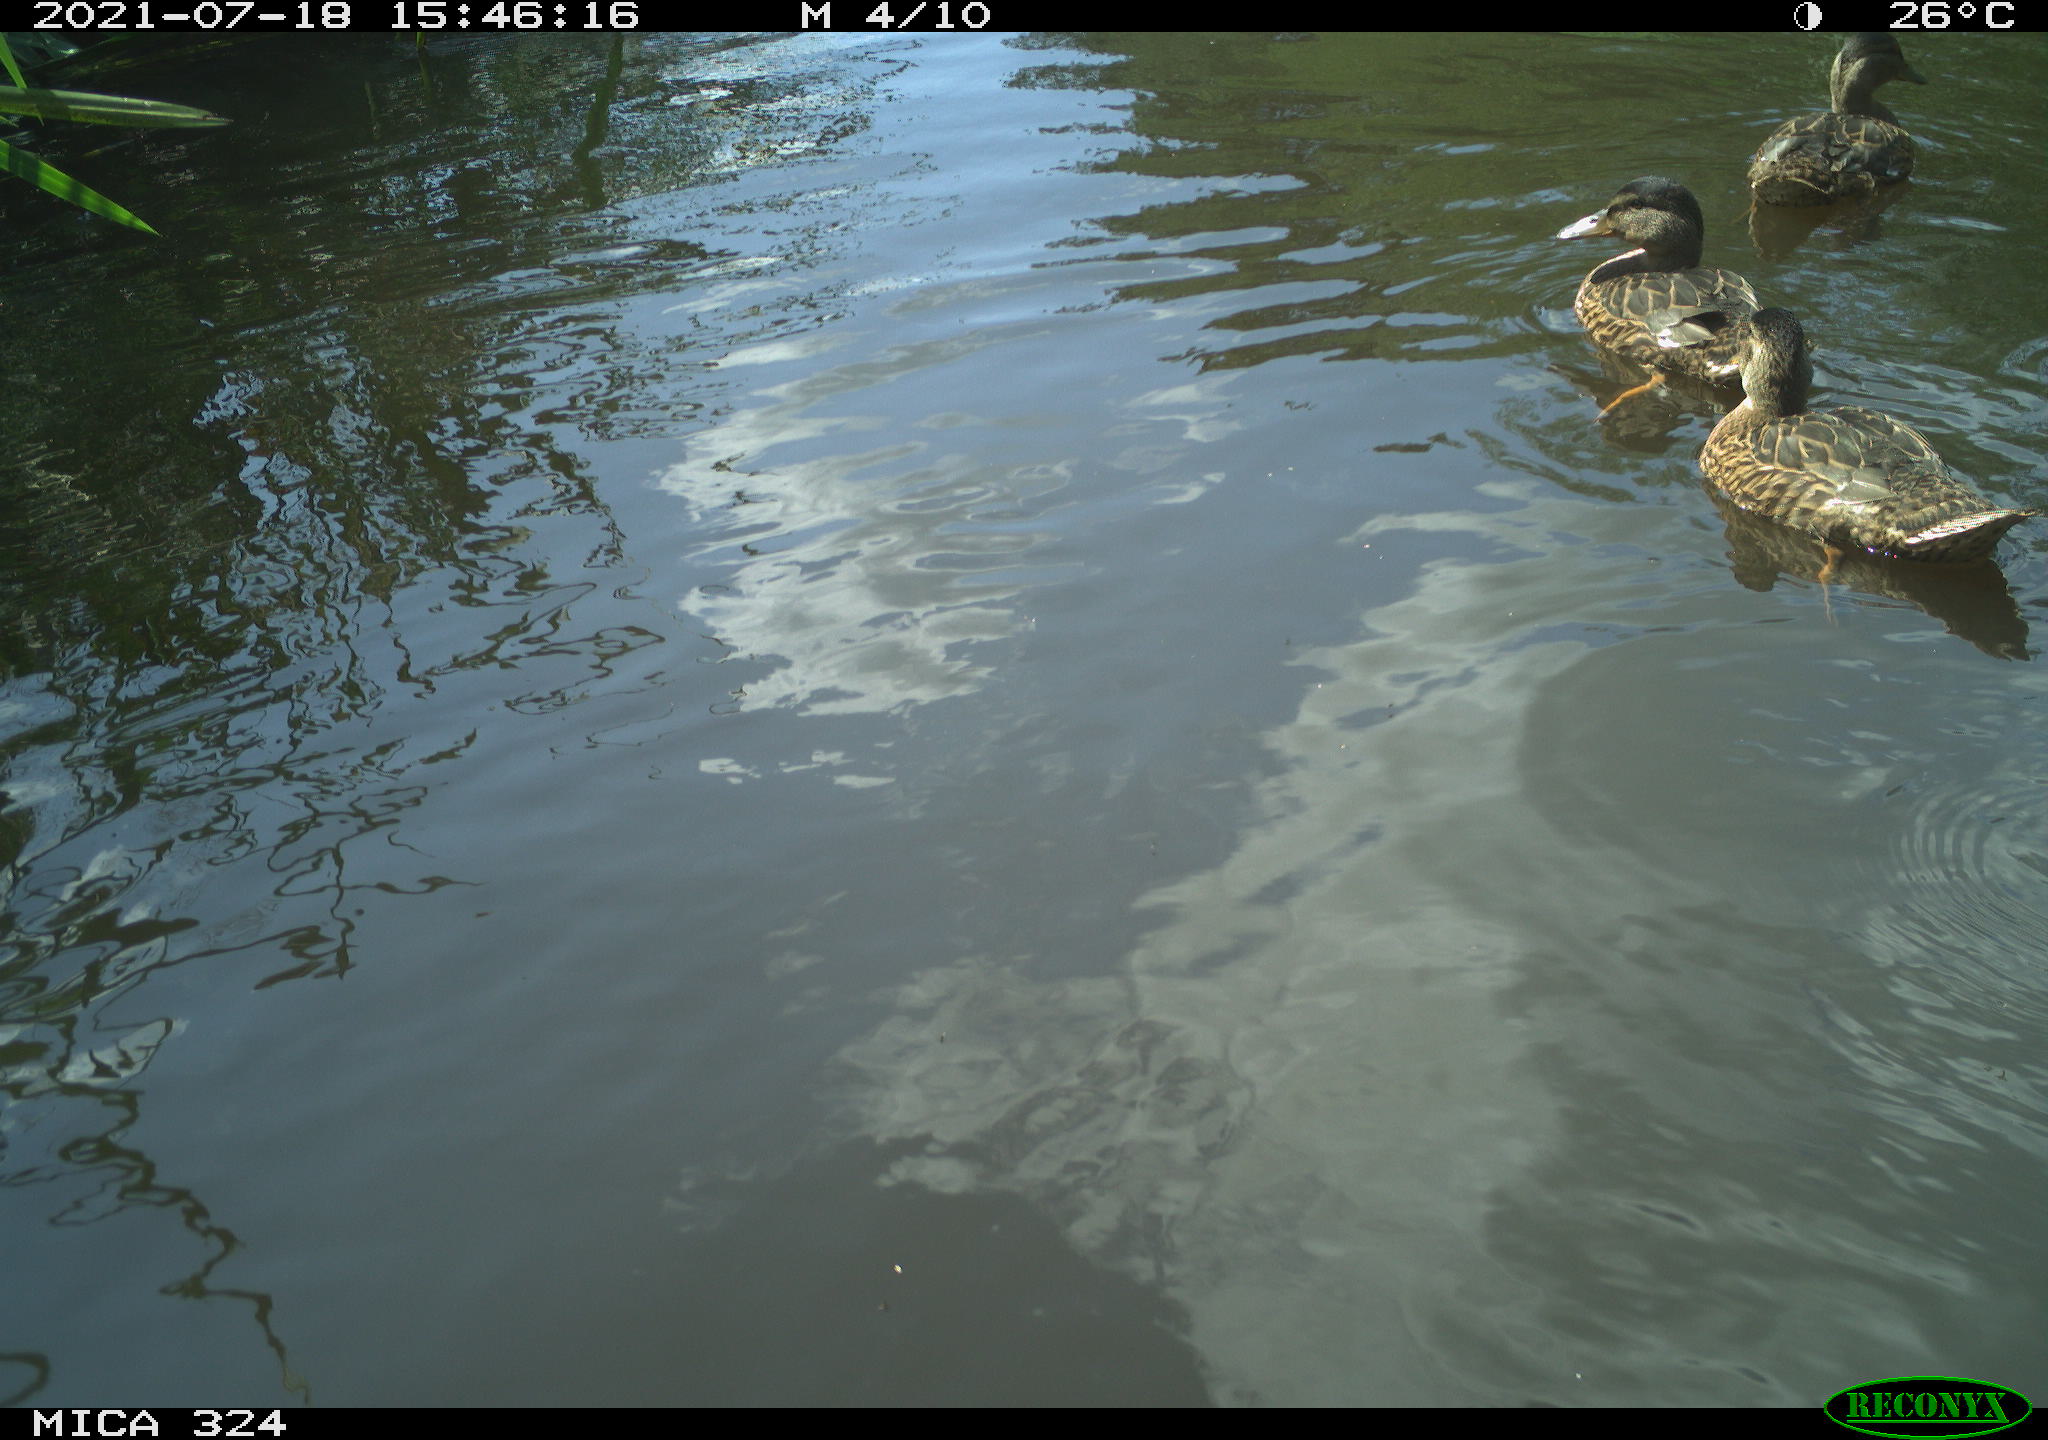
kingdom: Animalia
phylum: Chordata
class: Aves
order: Anseriformes
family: Anatidae
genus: Anas
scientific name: Anas platyrhynchos
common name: Mallard
